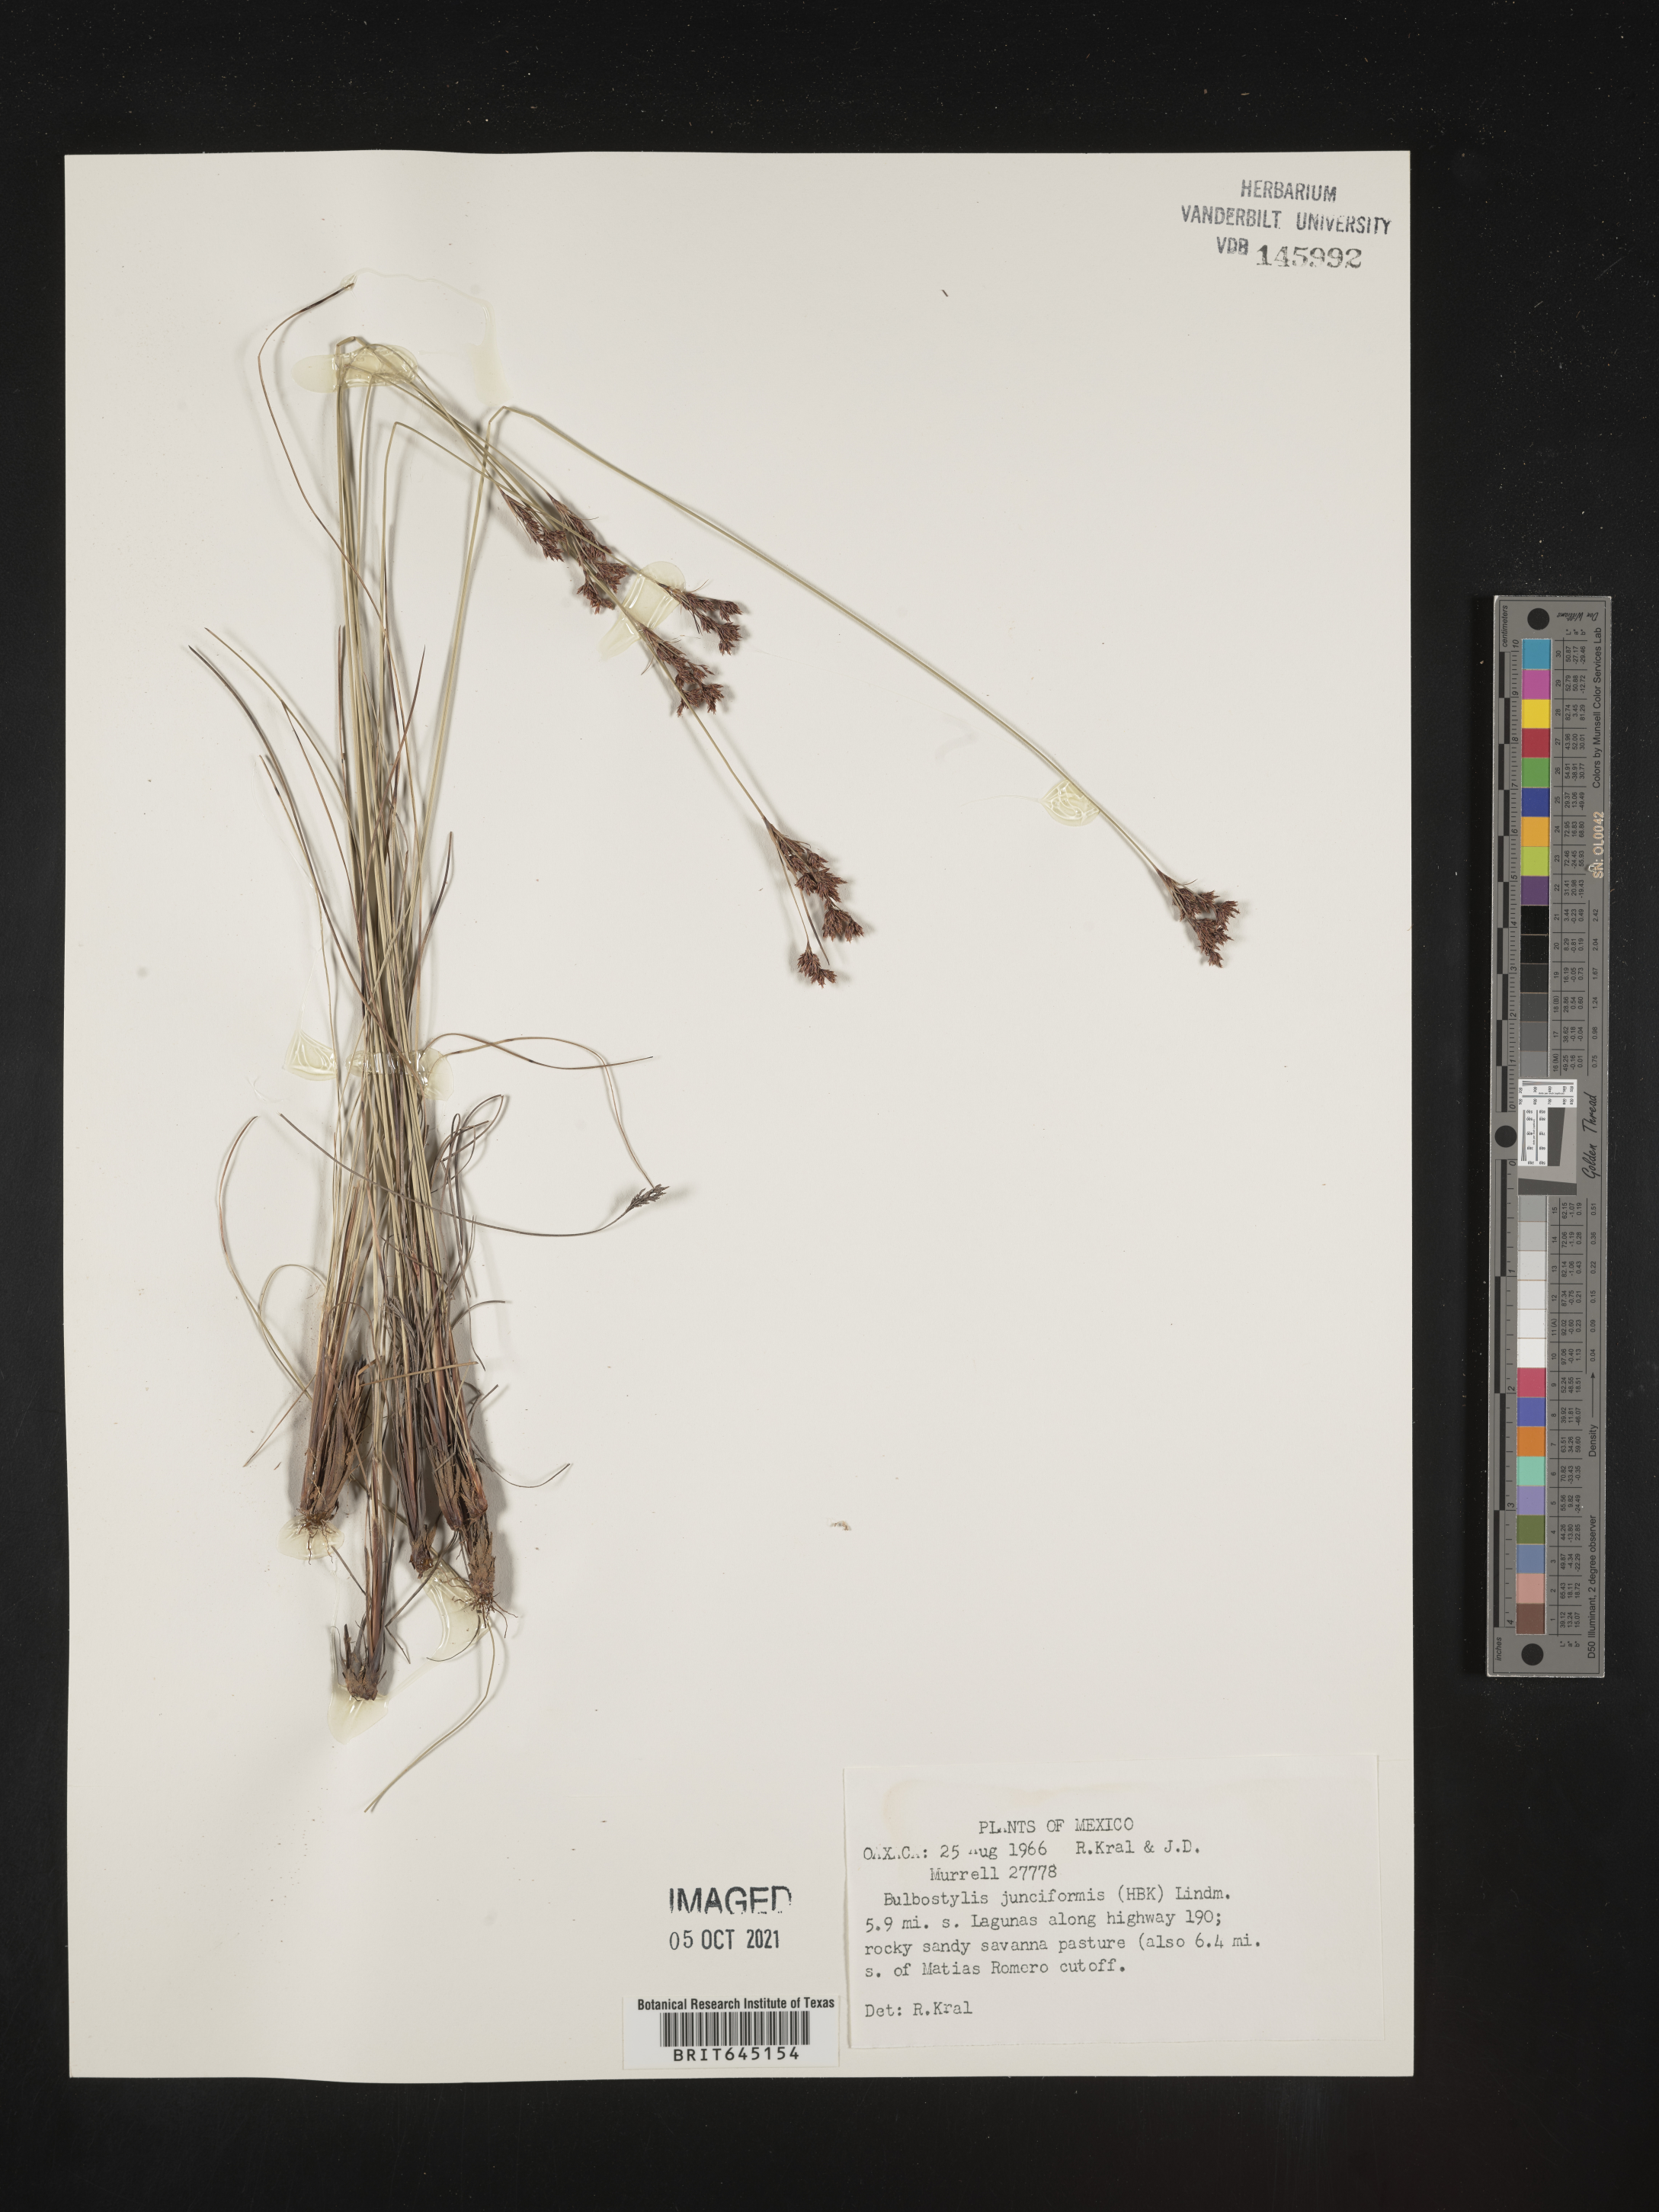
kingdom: Plantae
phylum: Tracheophyta
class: Liliopsida
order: Poales
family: Cyperaceae
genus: Bulbostylis
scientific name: Bulbostylis junciformis
